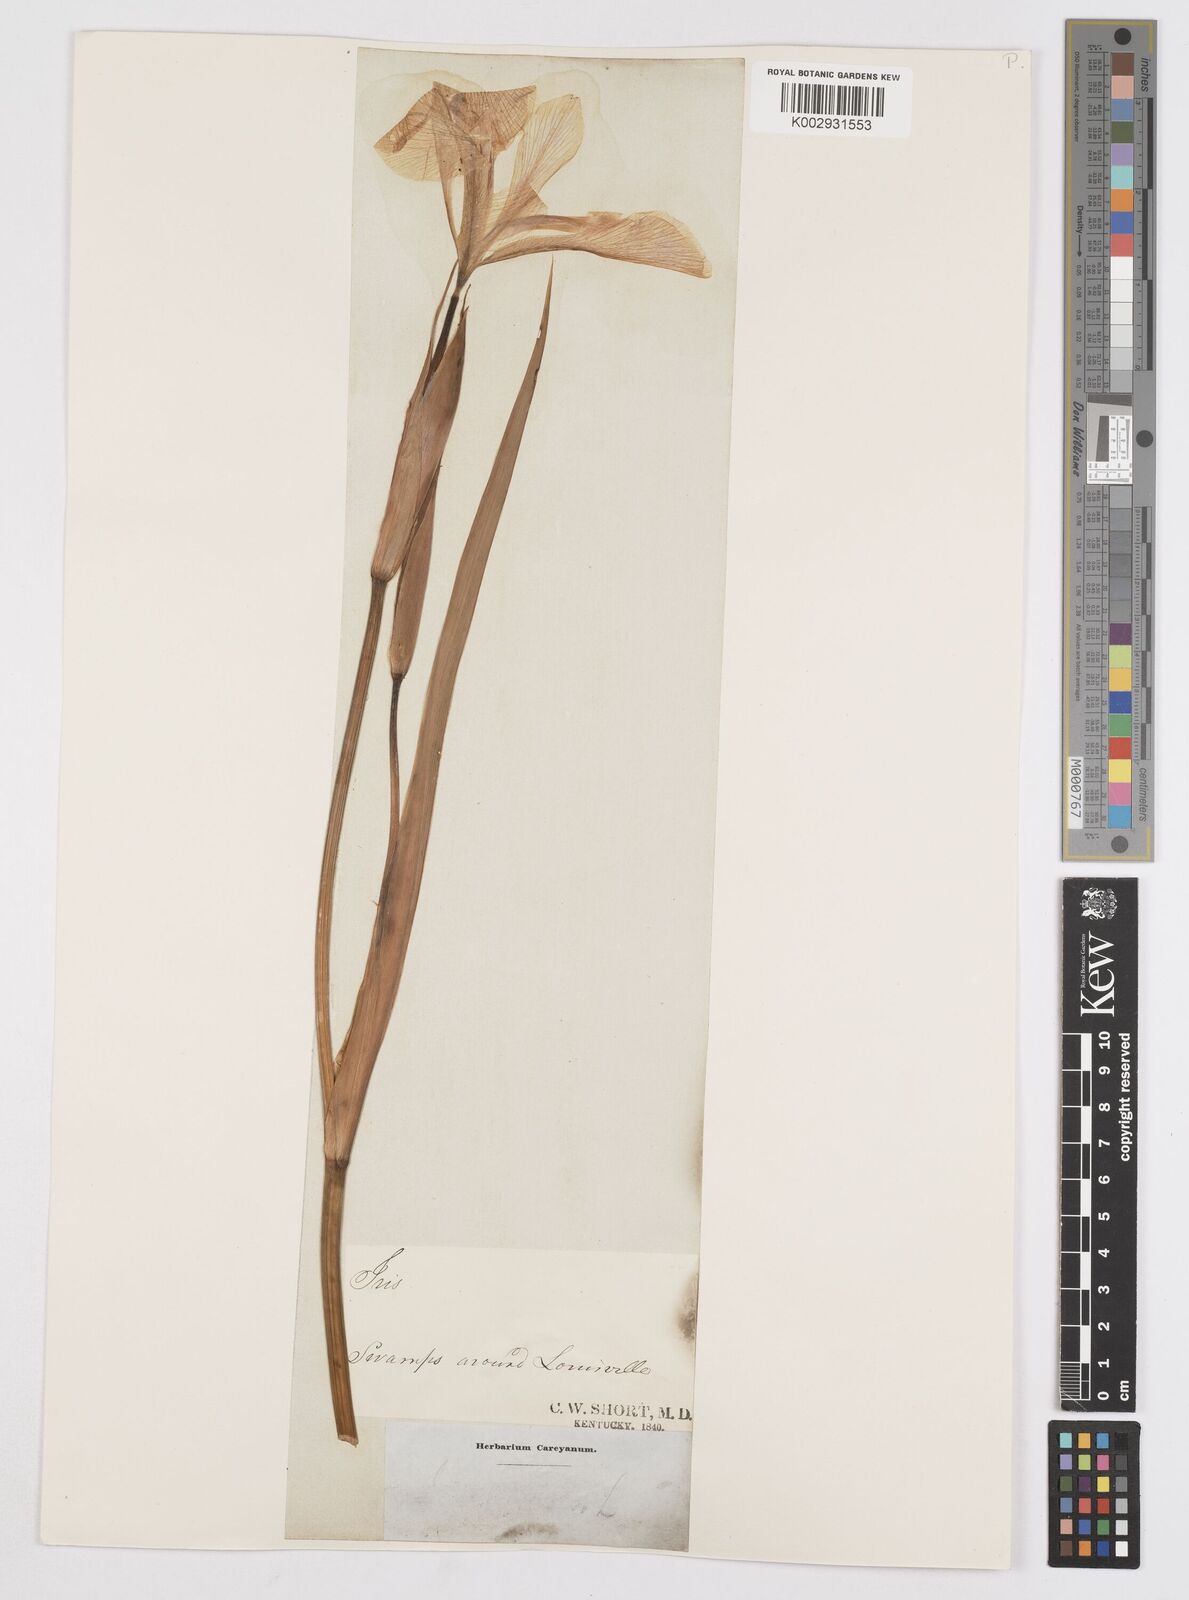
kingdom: Plantae
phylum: Tracheophyta
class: Liliopsida
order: Asparagales
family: Iridaceae
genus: Iris
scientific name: Iris virginica
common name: Southern blue flag
